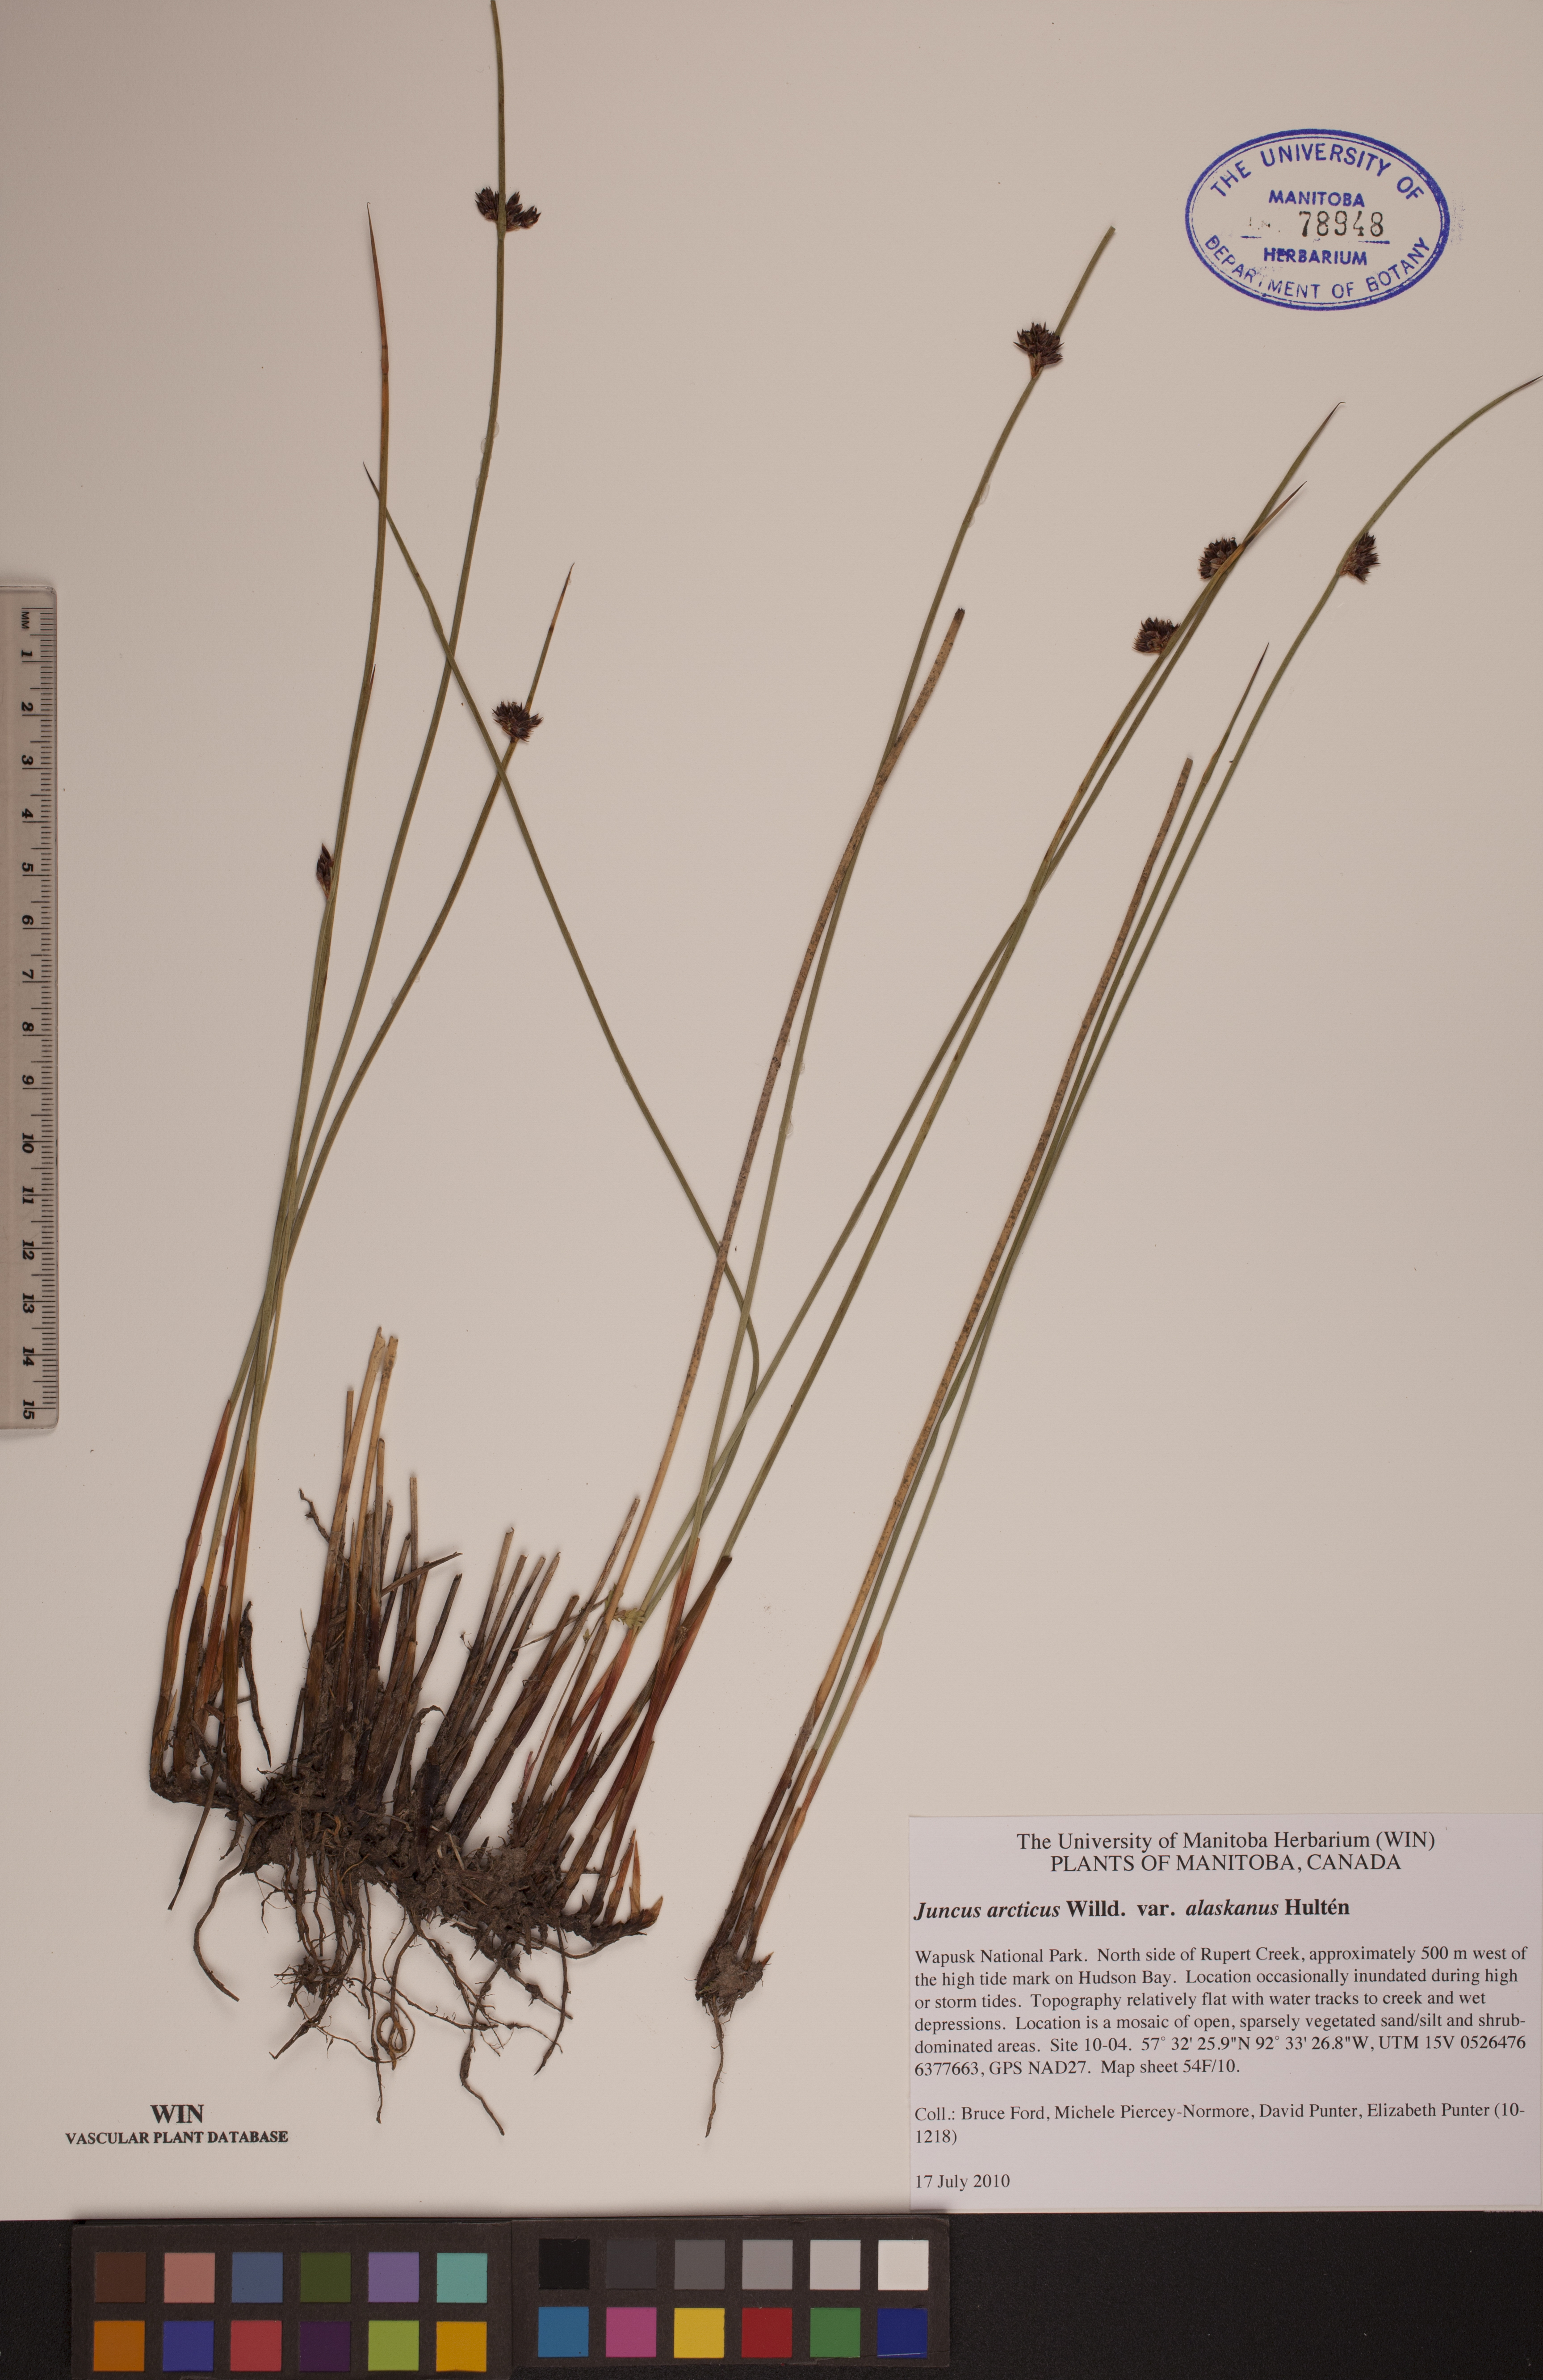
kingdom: Plantae
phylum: Tracheophyta
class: Liliopsida
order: Poales
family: Juncaceae
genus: Juncus
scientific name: Juncus arcticus
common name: Arctic rush
